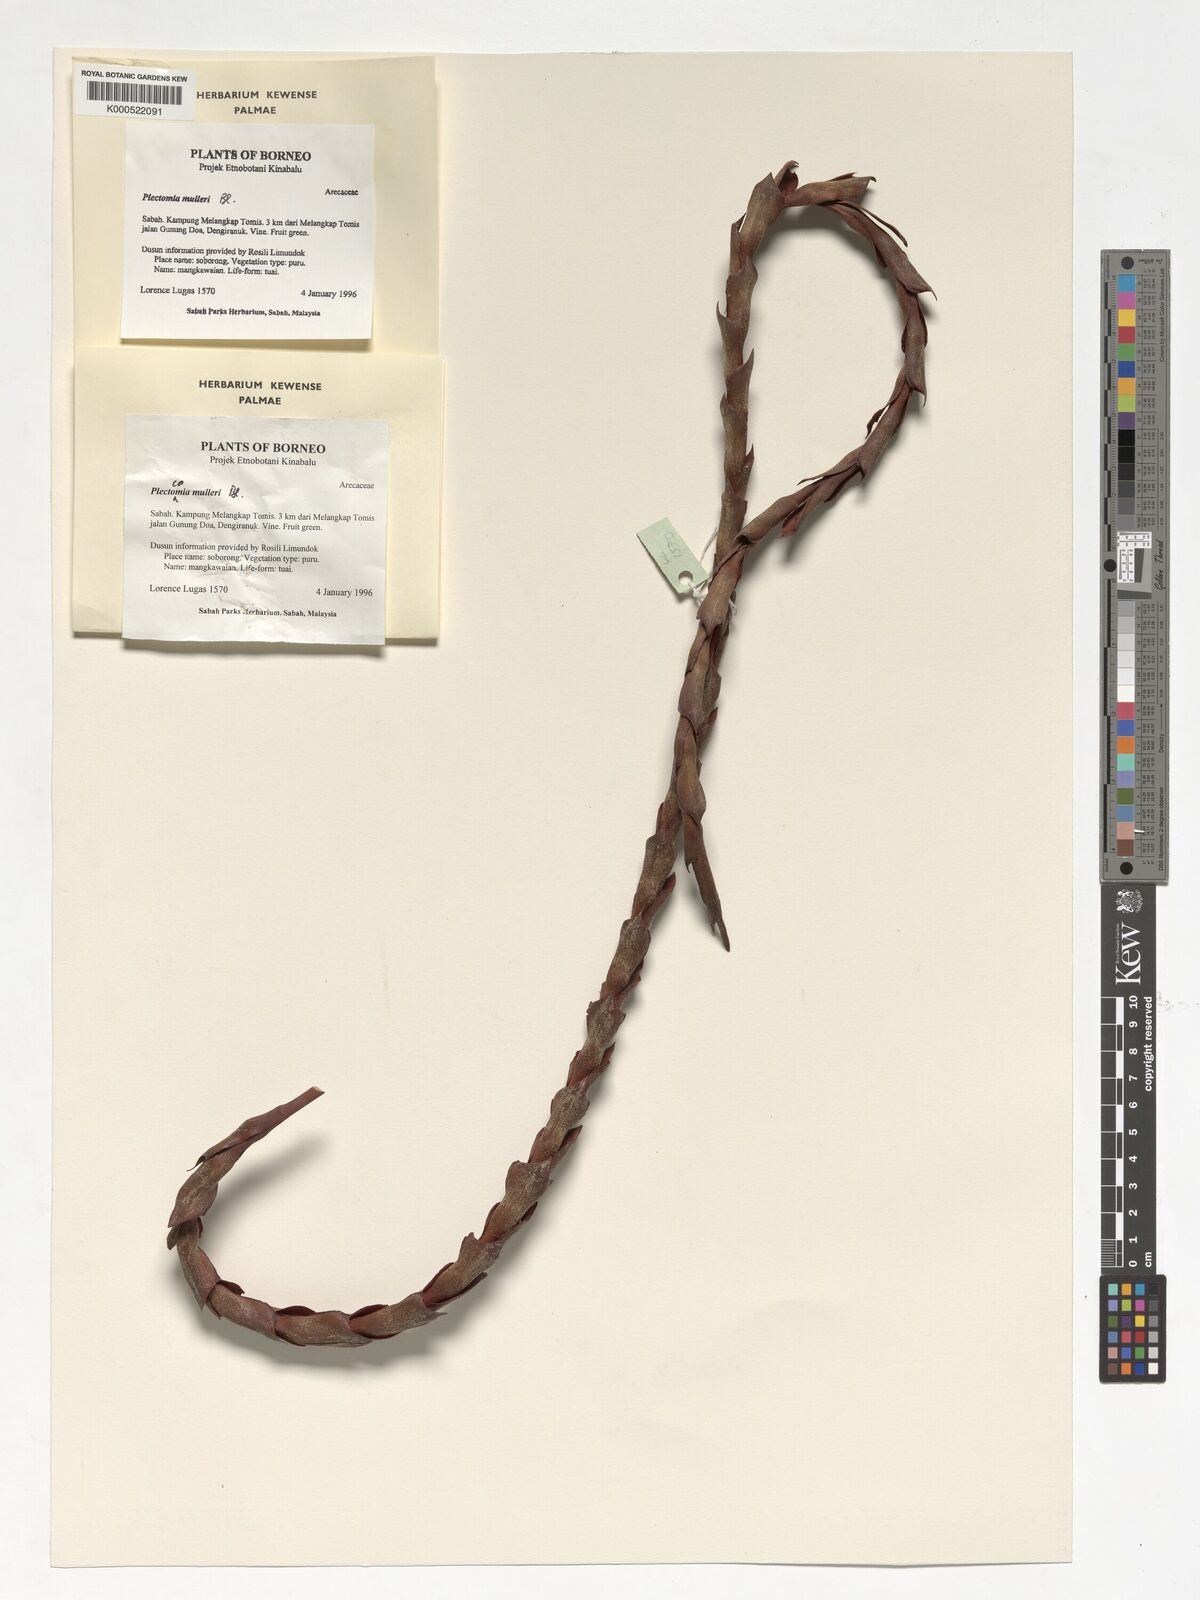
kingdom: Plantae
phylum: Tracheophyta
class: Liliopsida
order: Arecales
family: Arecaceae
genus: Plectocomia
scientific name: Plectocomia mulleri
